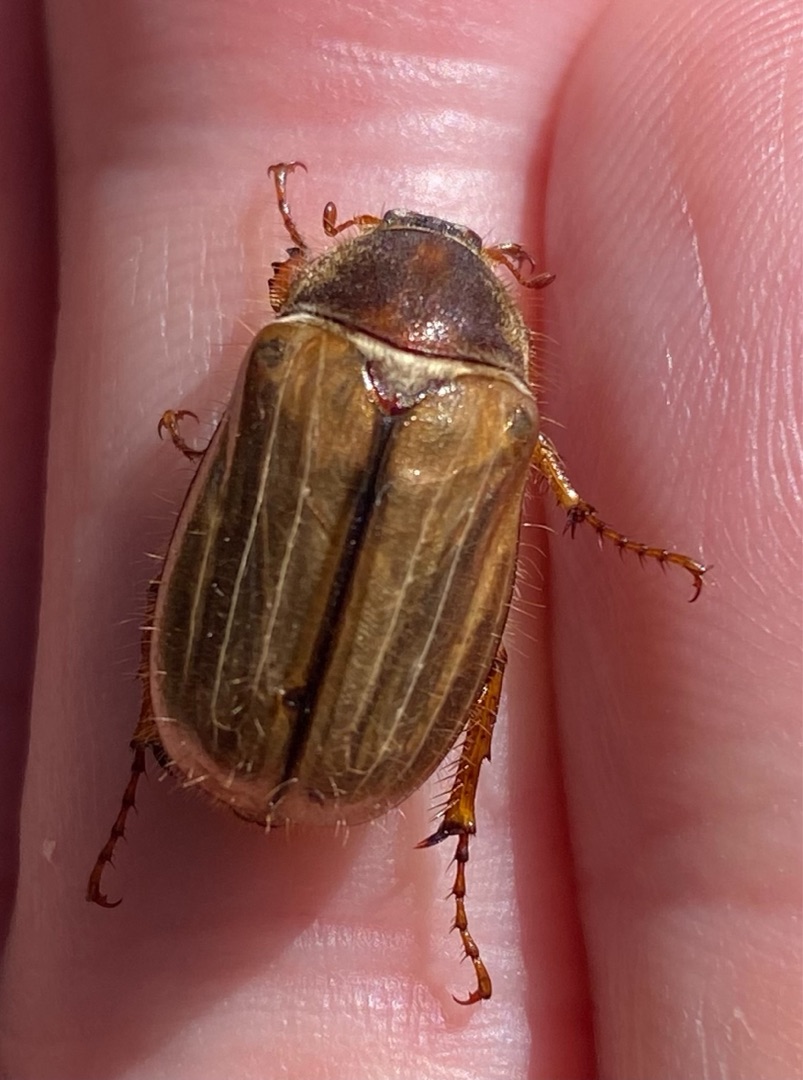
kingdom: Animalia
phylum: Arthropoda
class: Insecta
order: Coleoptera
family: Scarabaeidae
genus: Amphimallon
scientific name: Amphimallon solstitiale
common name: Sankthansoldenborre
